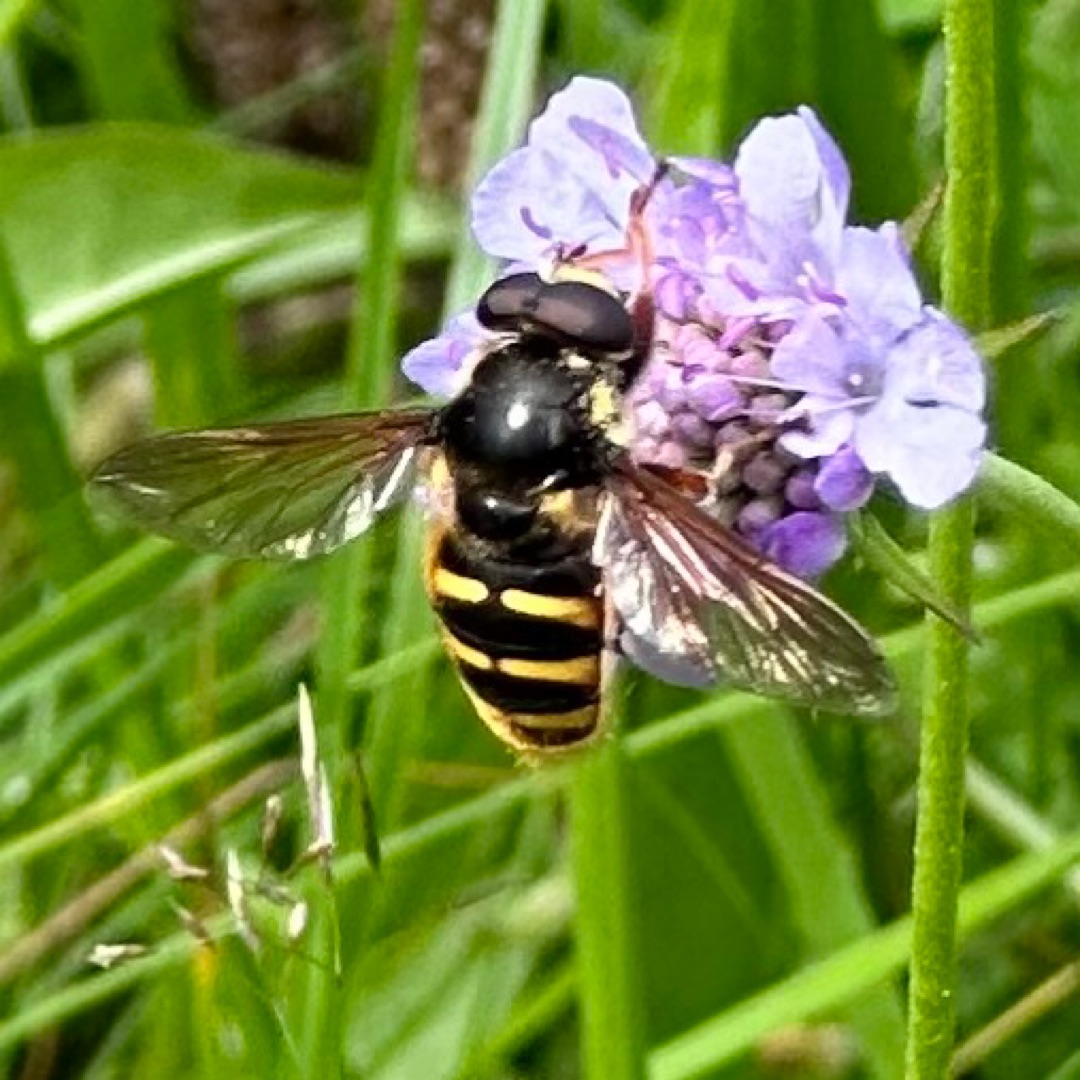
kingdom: Animalia
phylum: Arthropoda
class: Insecta
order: Diptera
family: Syrphidae
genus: Sericomyia
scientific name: Sericomyia silentis
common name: Tørve-silkesvirreflue
